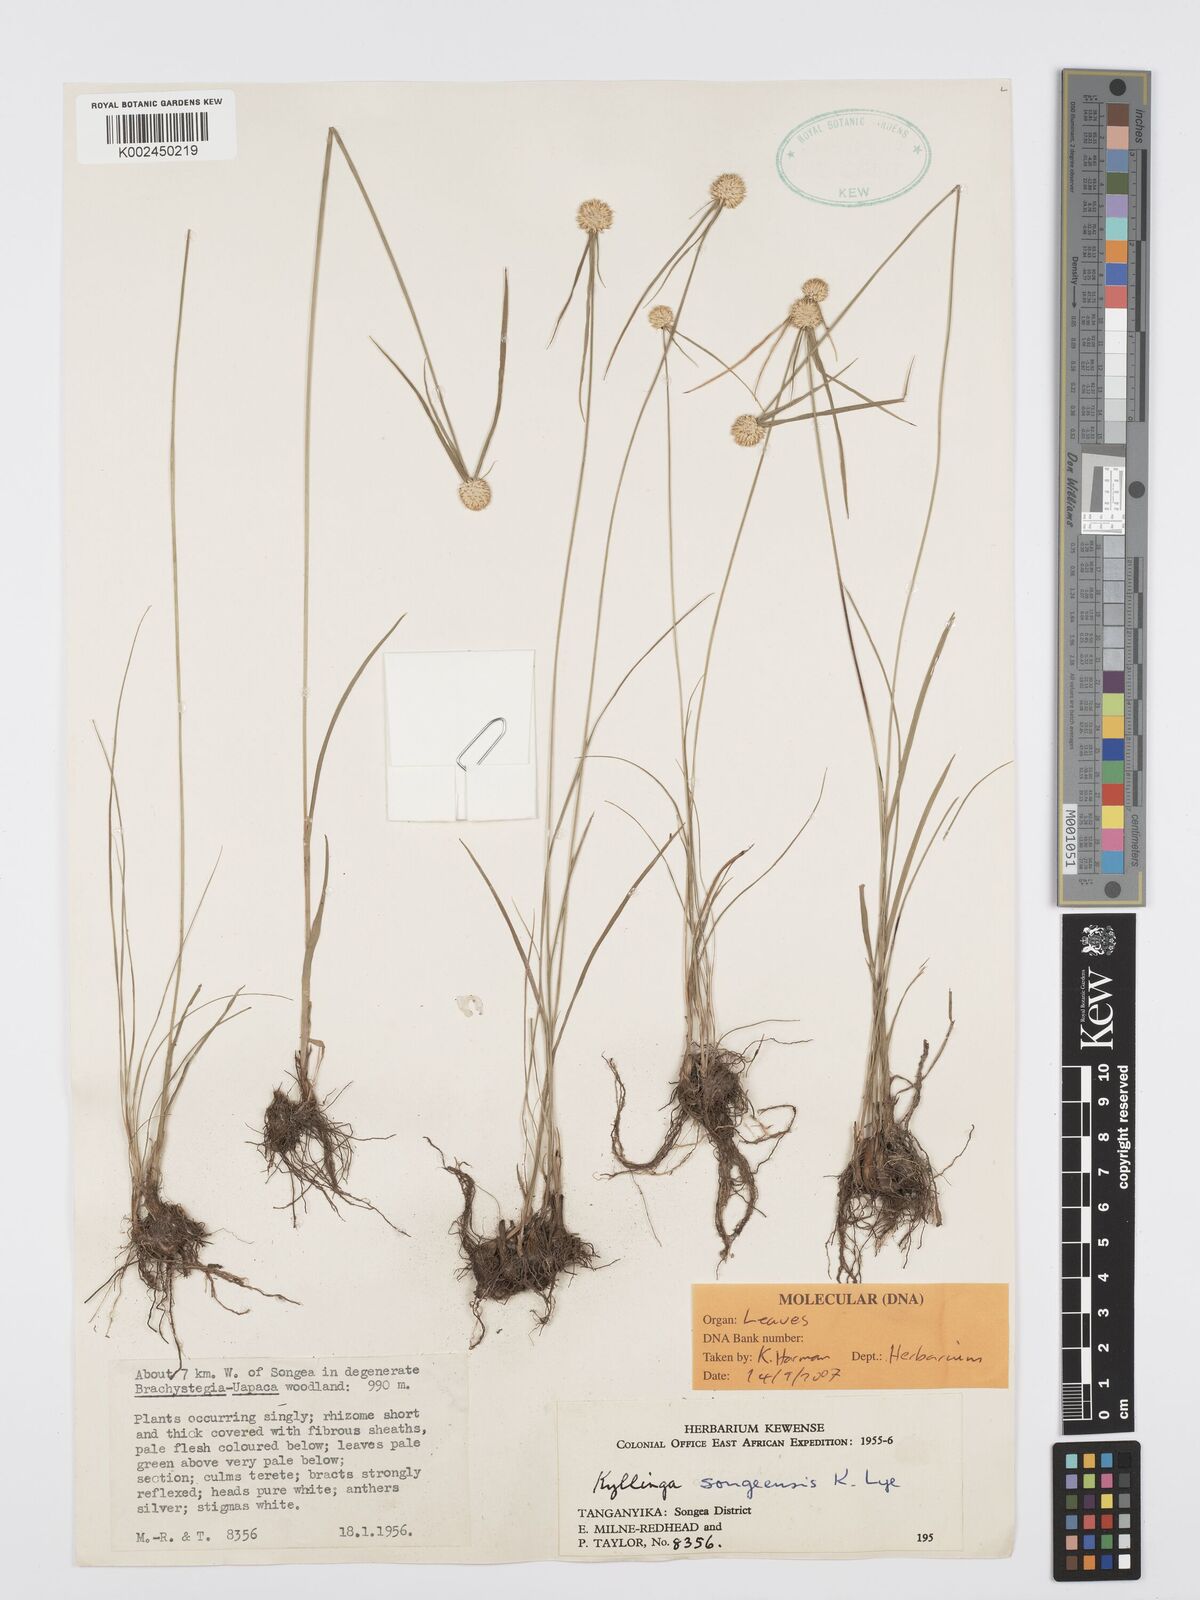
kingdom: Plantae
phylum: Tracheophyta
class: Liliopsida
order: Poales
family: Cyperaceae
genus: Cyperus
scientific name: Cyperus songeensis
